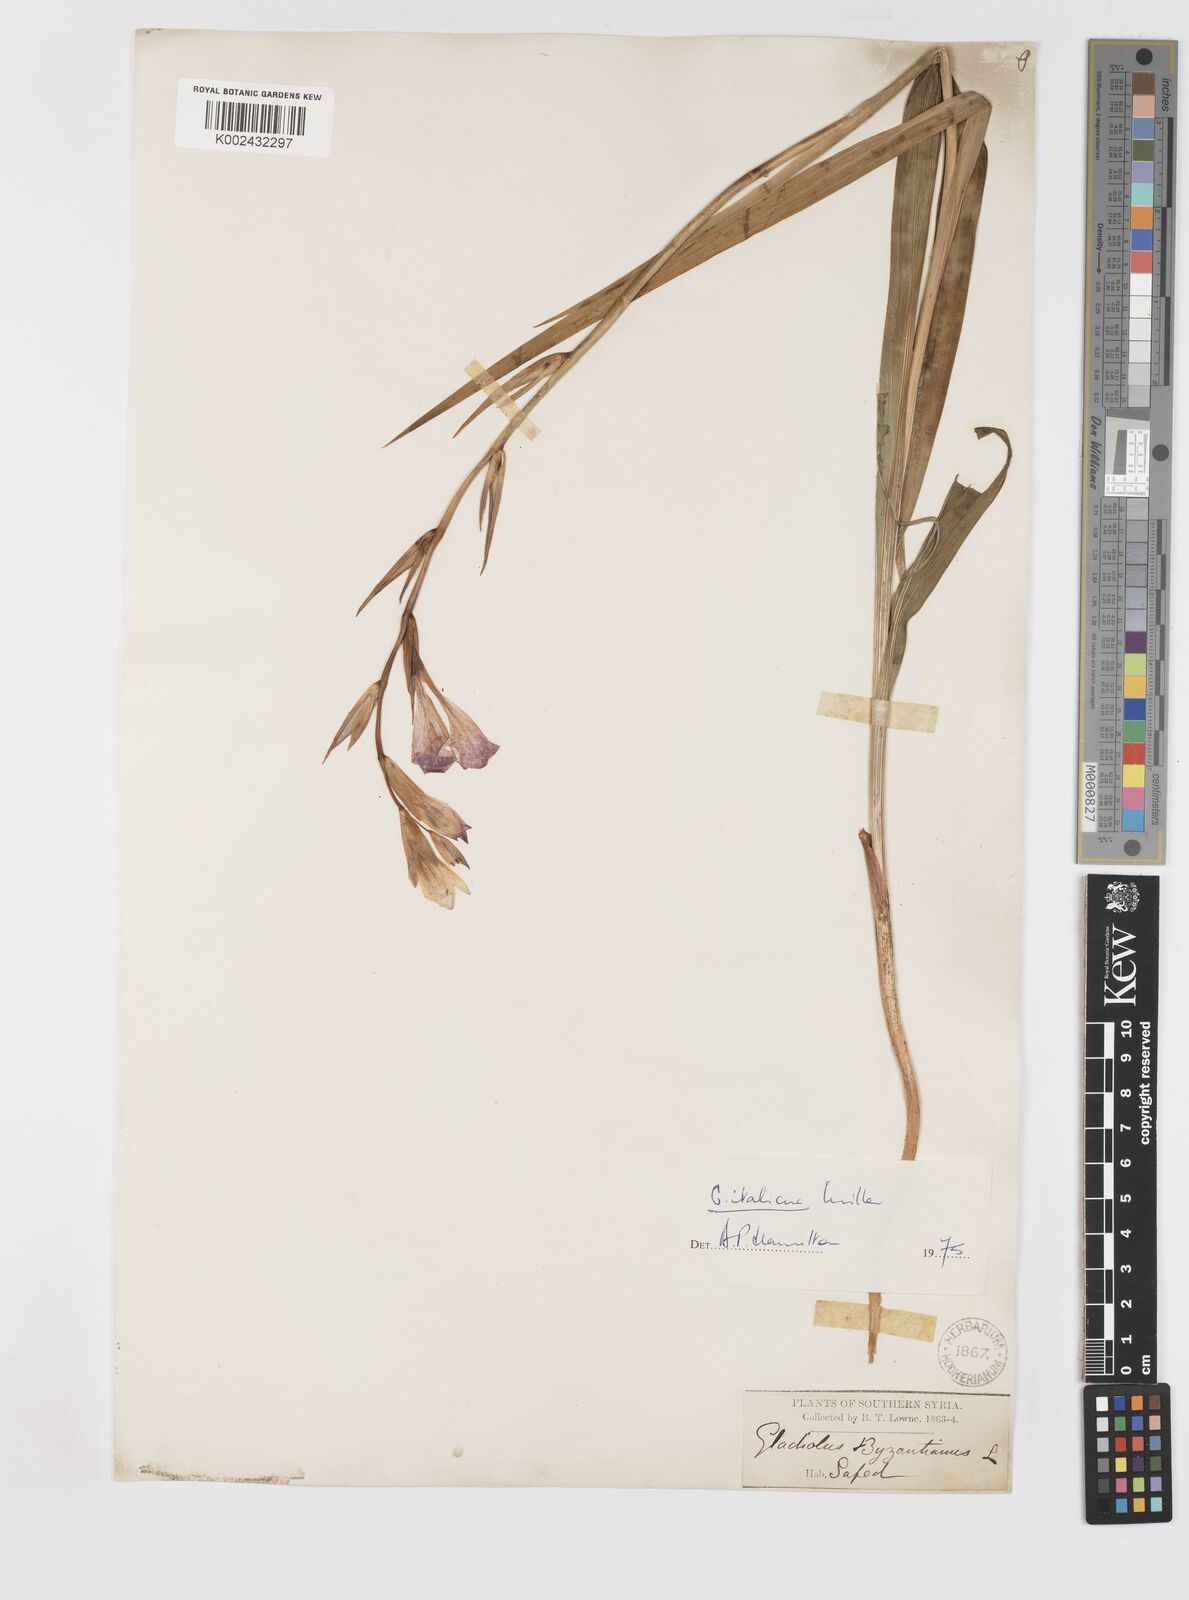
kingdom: Plantae
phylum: Tracheophyta
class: Liliopsida
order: Asparagales
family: Iridaceae
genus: Gladiolus
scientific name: Gladiolus italicus
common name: Field gladiolus
